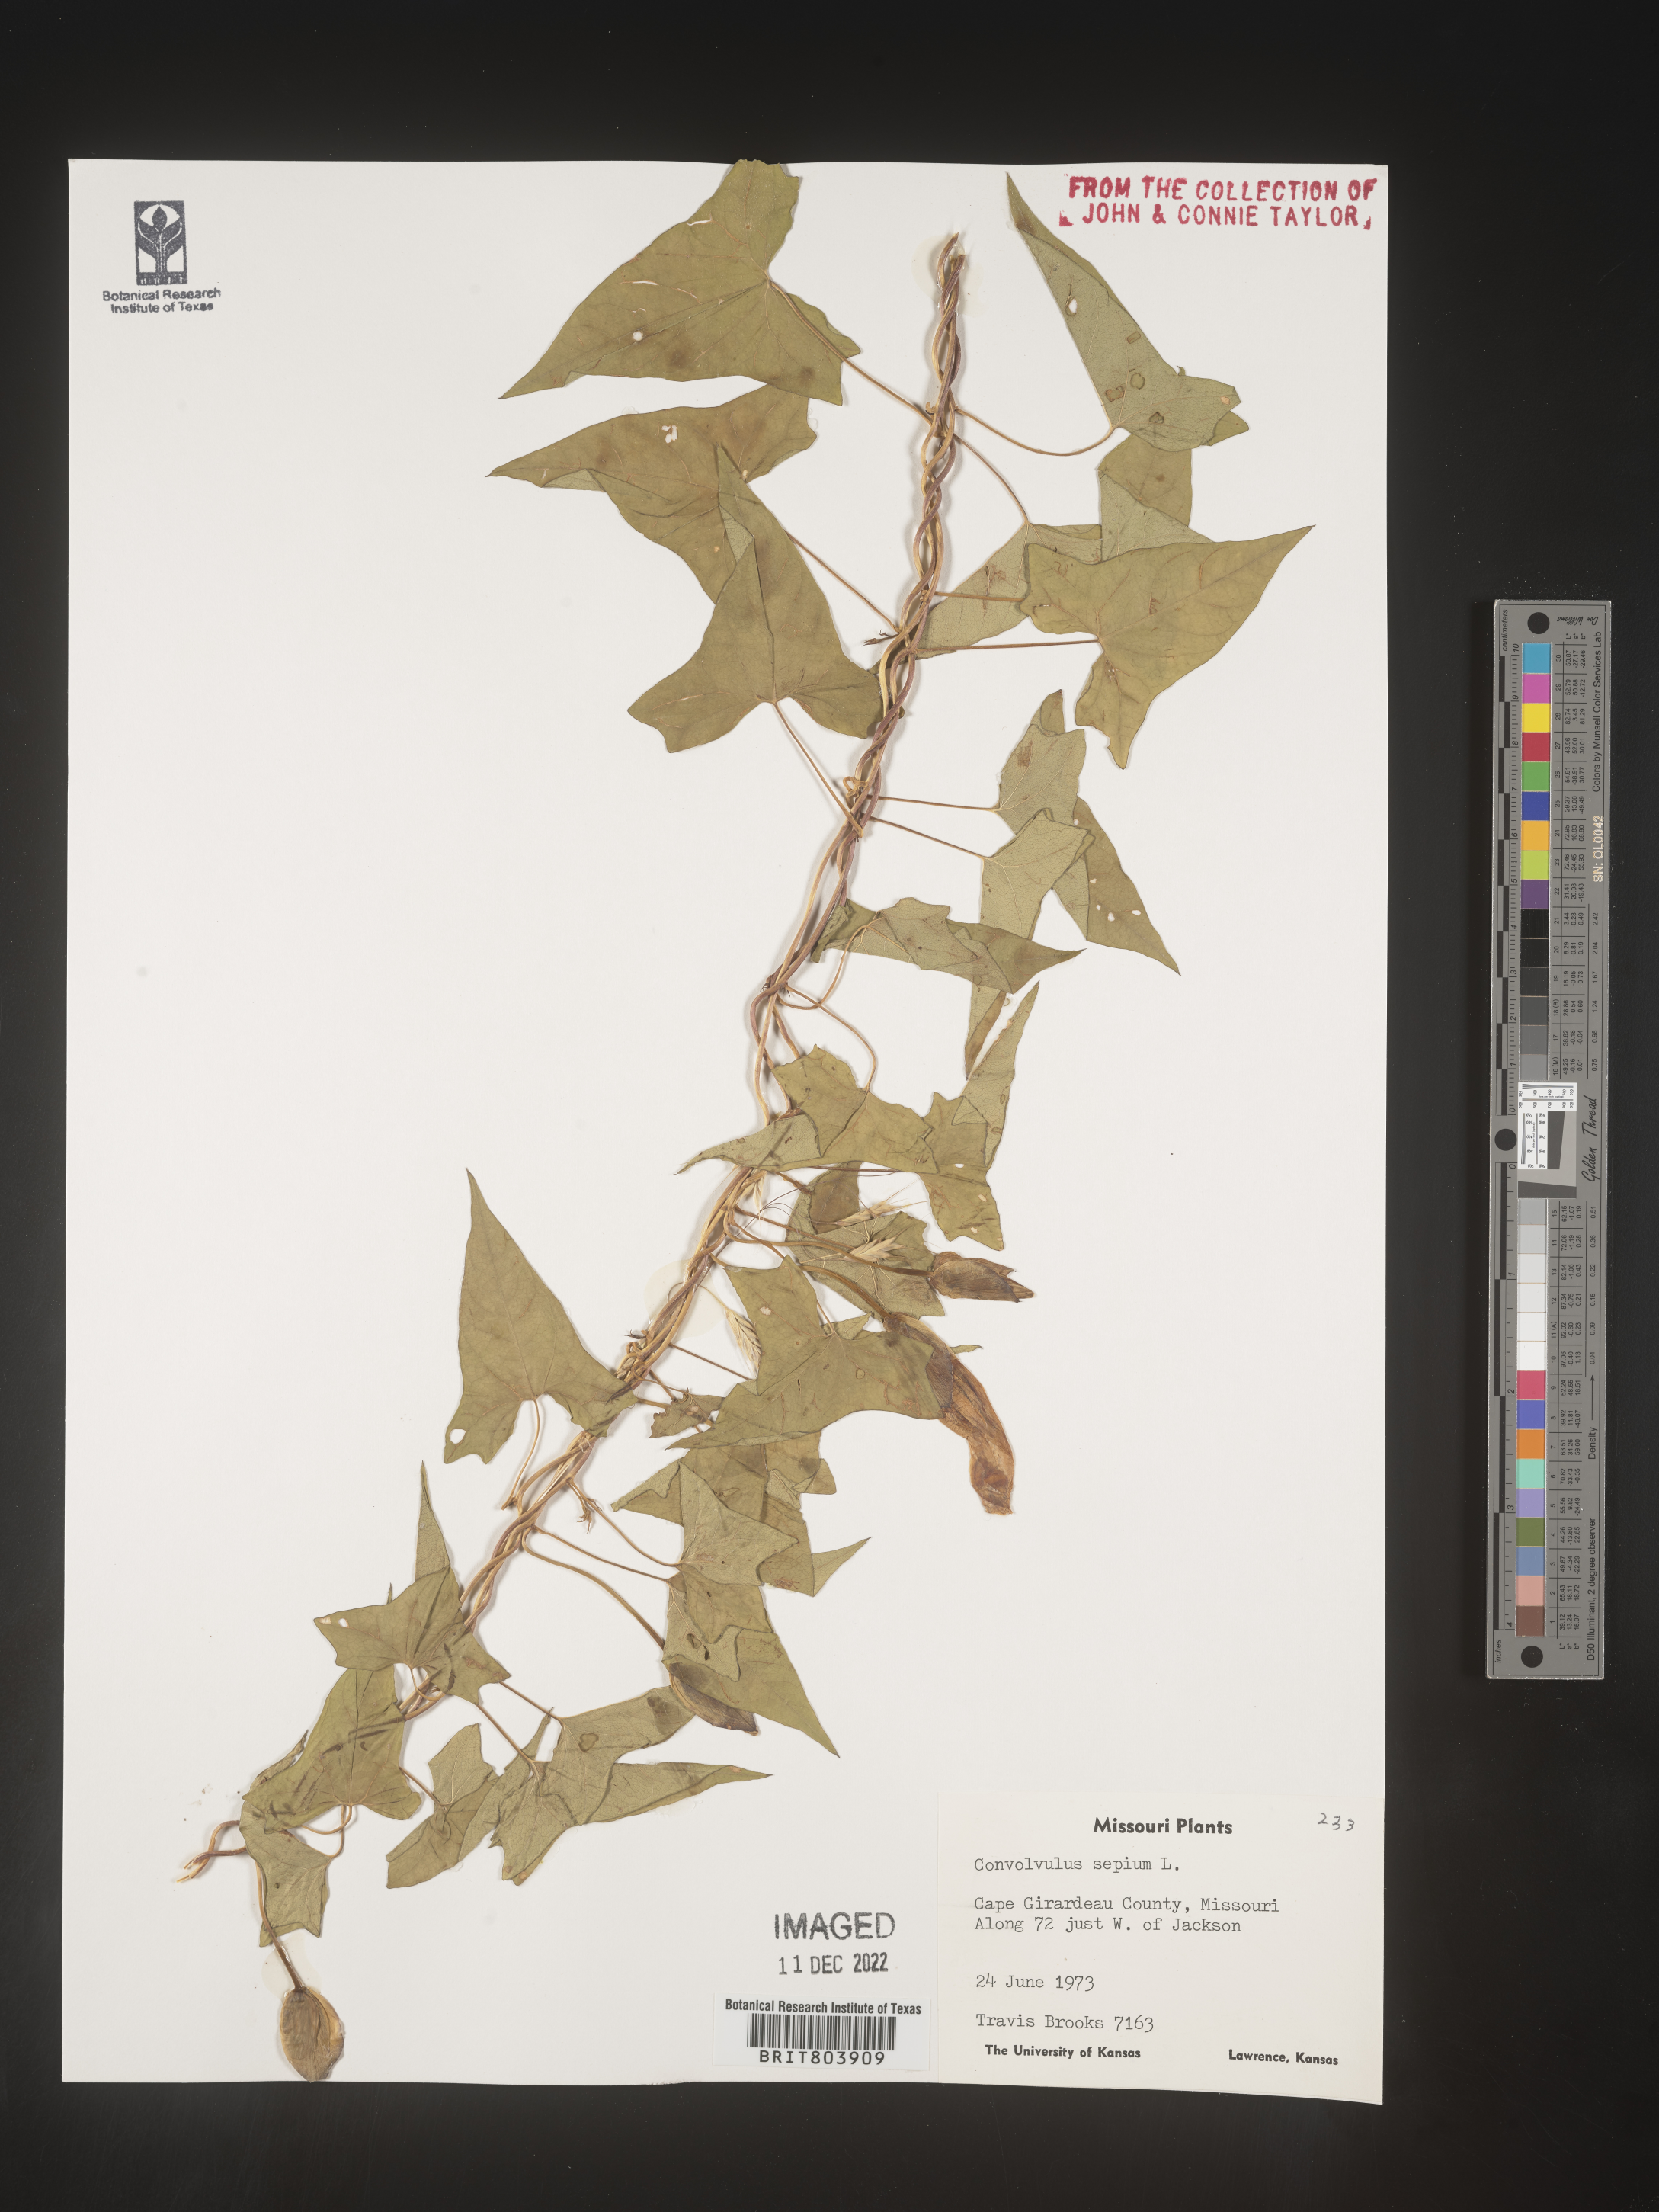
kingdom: Plantae
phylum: Tracheophyta
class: Magnoliopsida
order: Solanales
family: Convolvulaceae
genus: Calystegia
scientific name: Calystegia sepium
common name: Hedge bindweed
